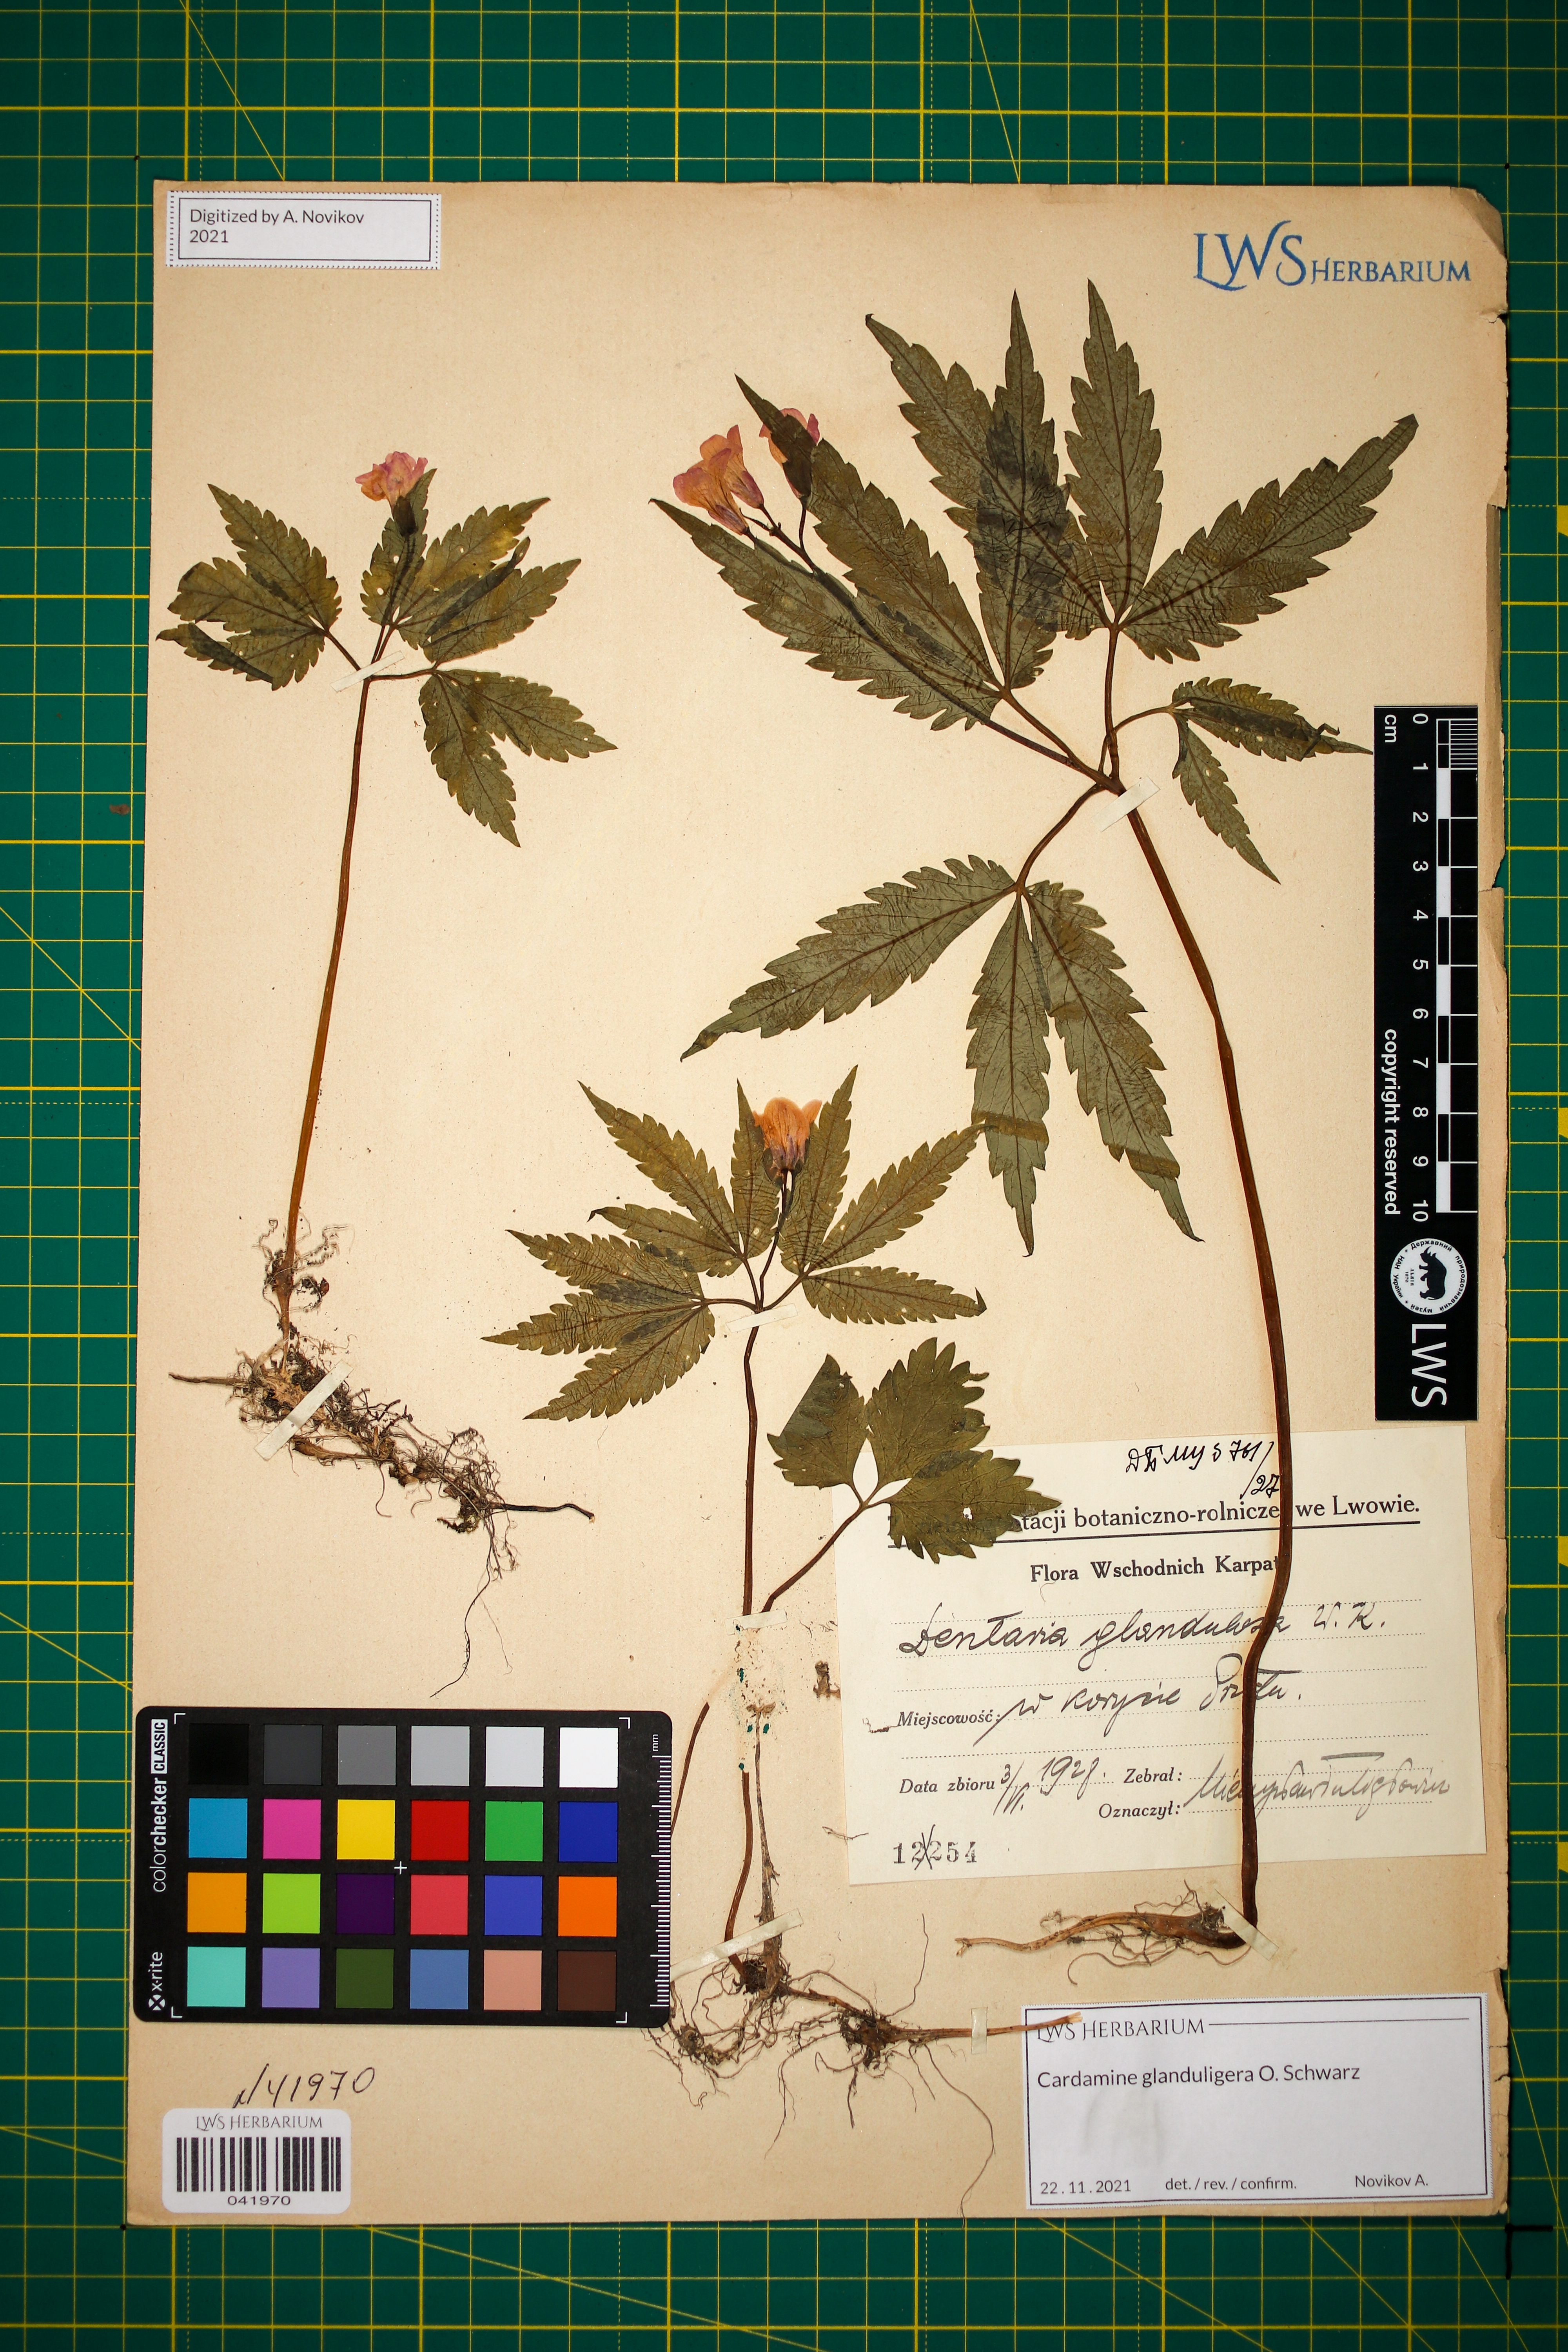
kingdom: Plantae
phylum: Tracheophyta
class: Magnoliopsida
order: Brassicales
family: Brassicaceae
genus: Cardamine
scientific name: Cardamine glanduligera
